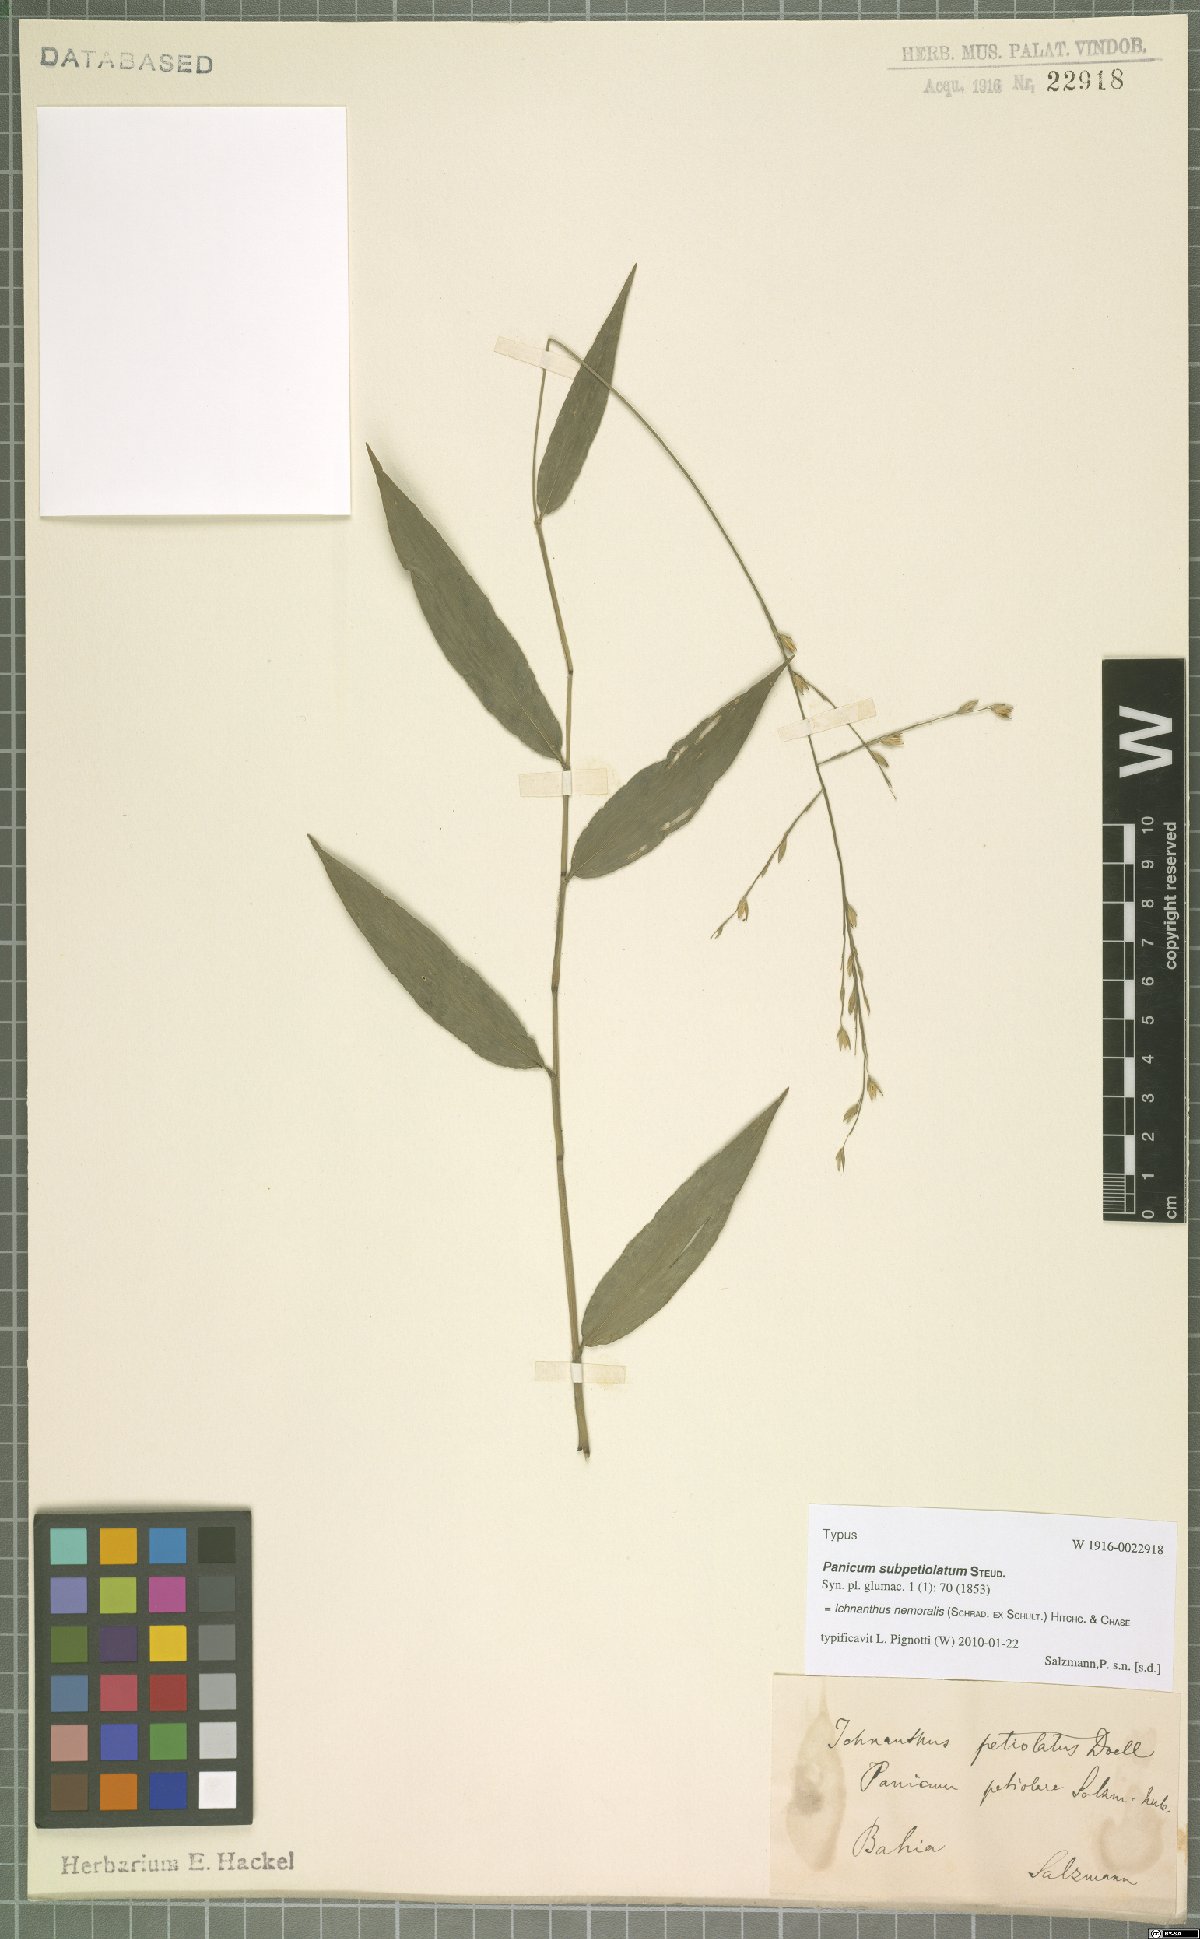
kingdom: Plantae
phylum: Tracheophyta
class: Liliopsida
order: Poales
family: Poaceae
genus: Ichnanthus
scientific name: Ichnanthus nemoralis
